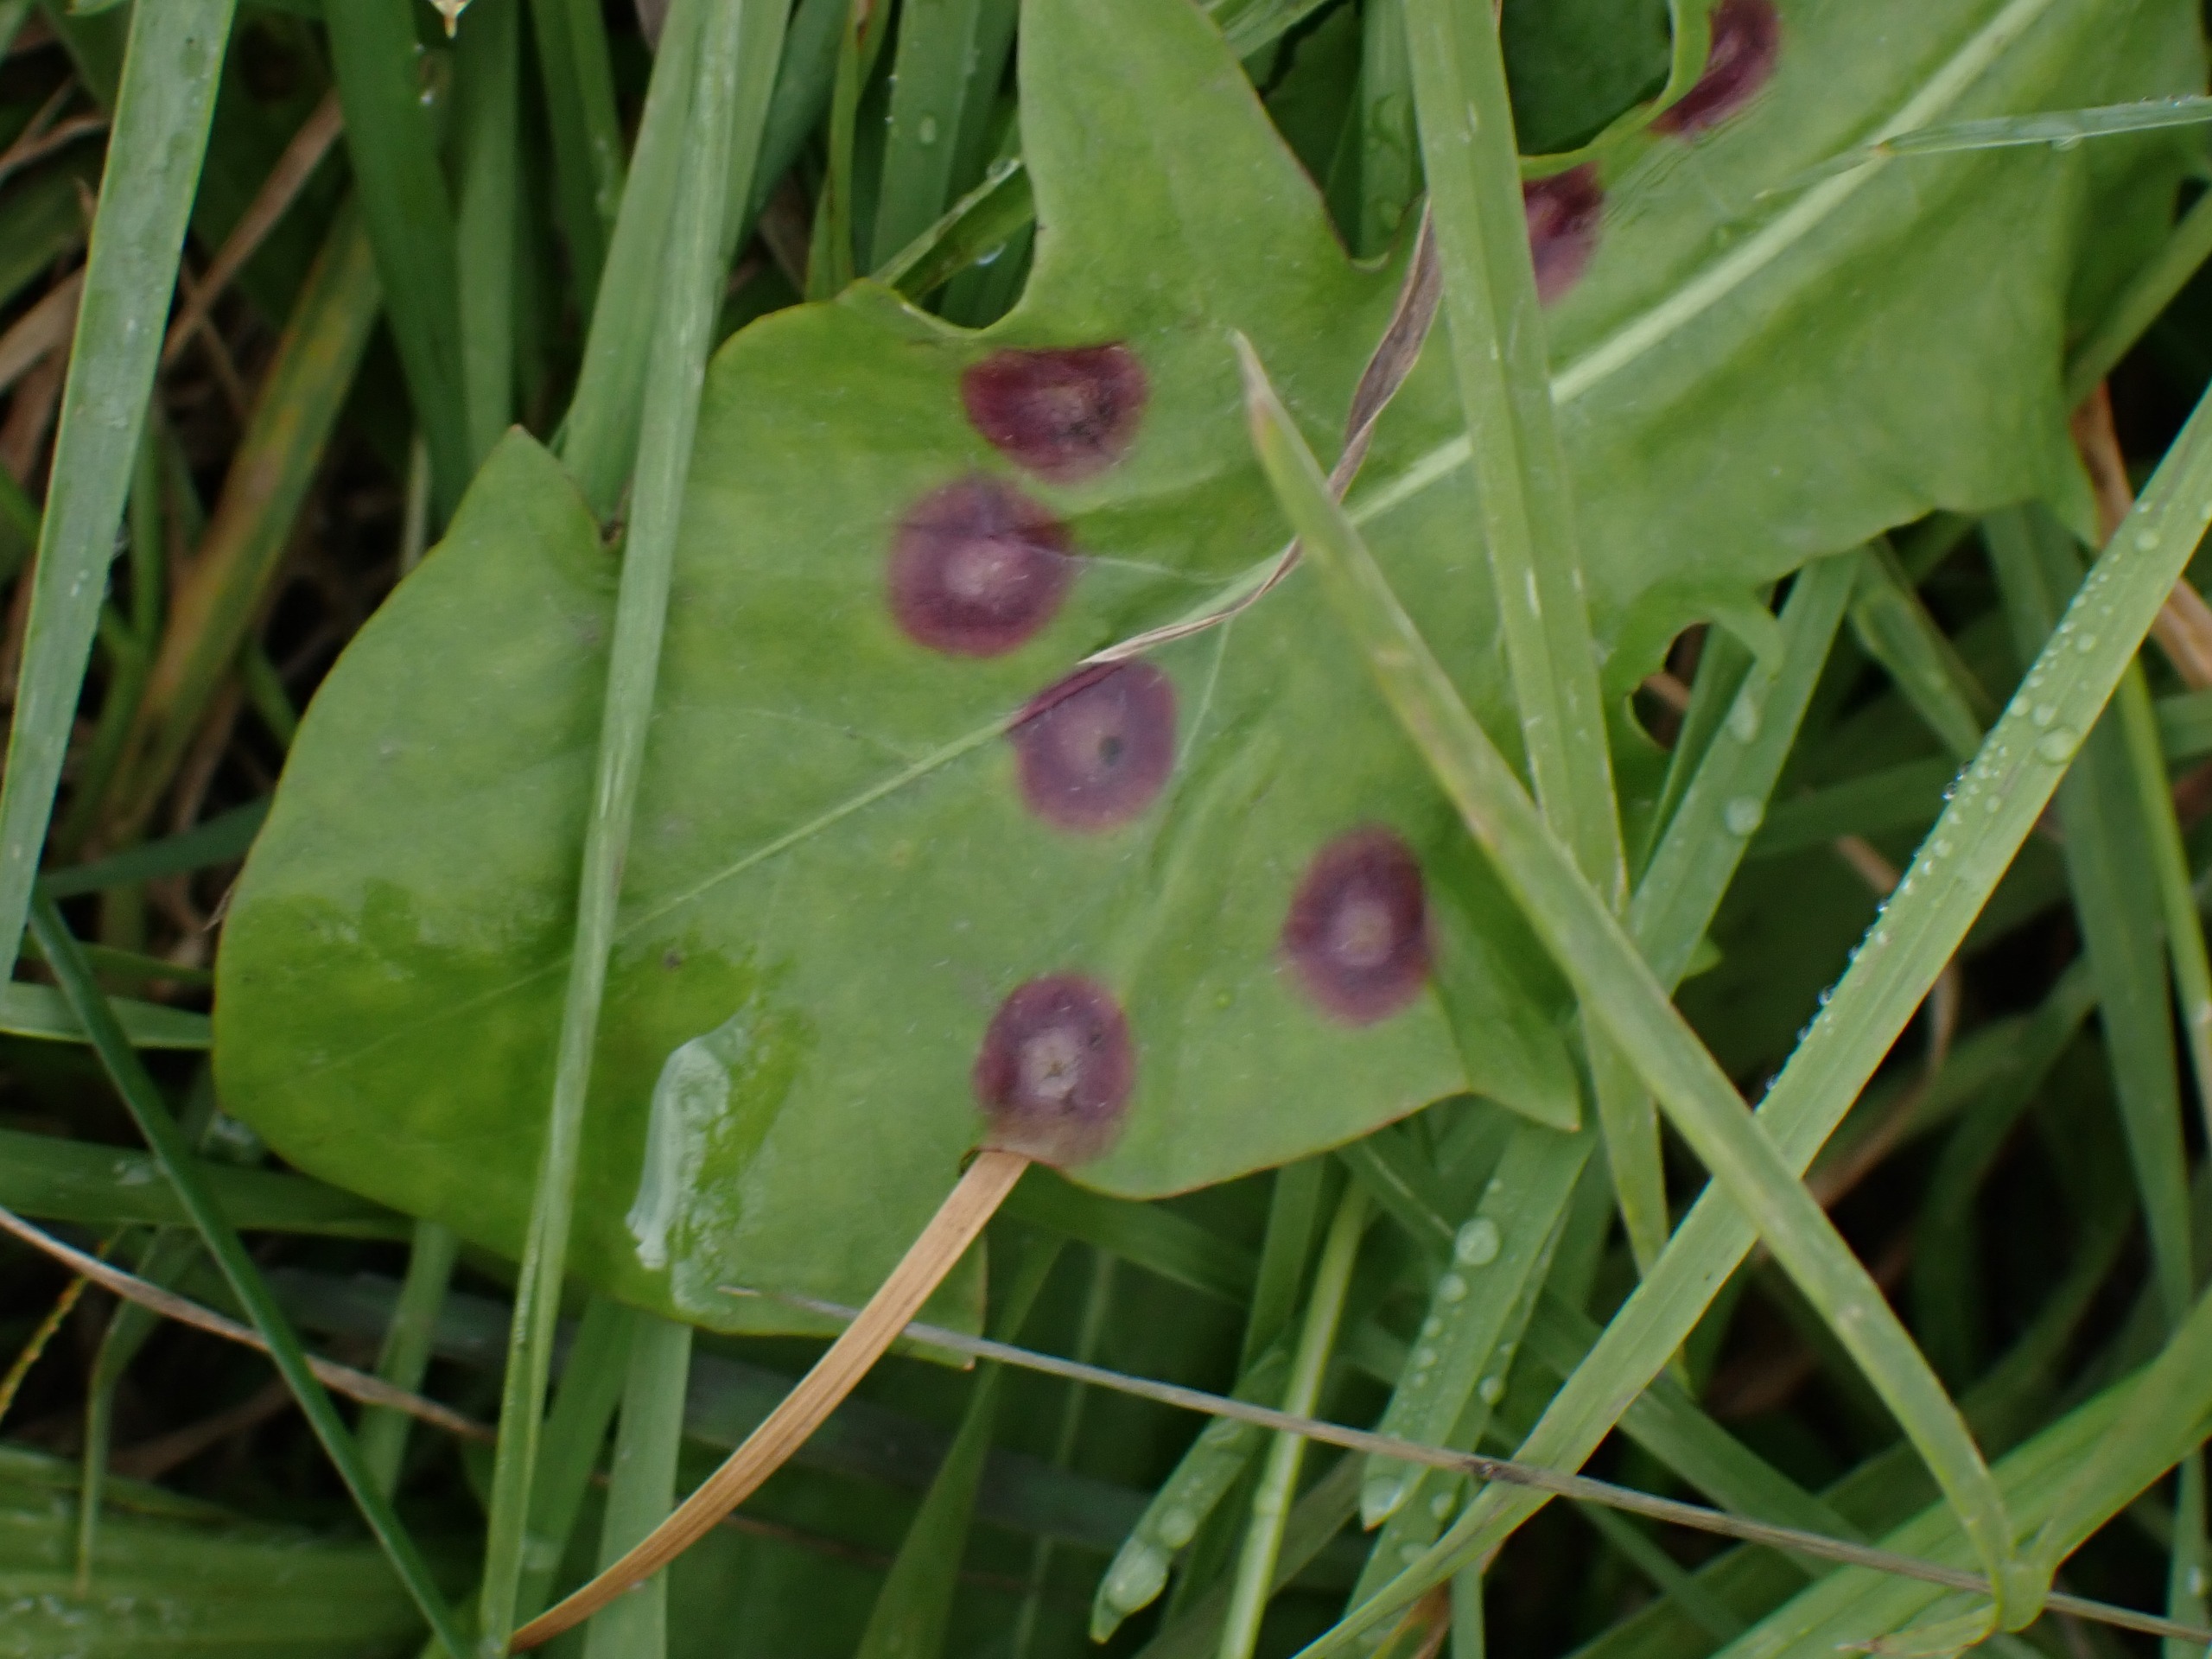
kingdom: Animalia
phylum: Arthropoda
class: Insecta
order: Diptera
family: Cecidomyiidae
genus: Cystiphora
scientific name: Cystiphora taraxaci
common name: Mælkebøttegalmyg
